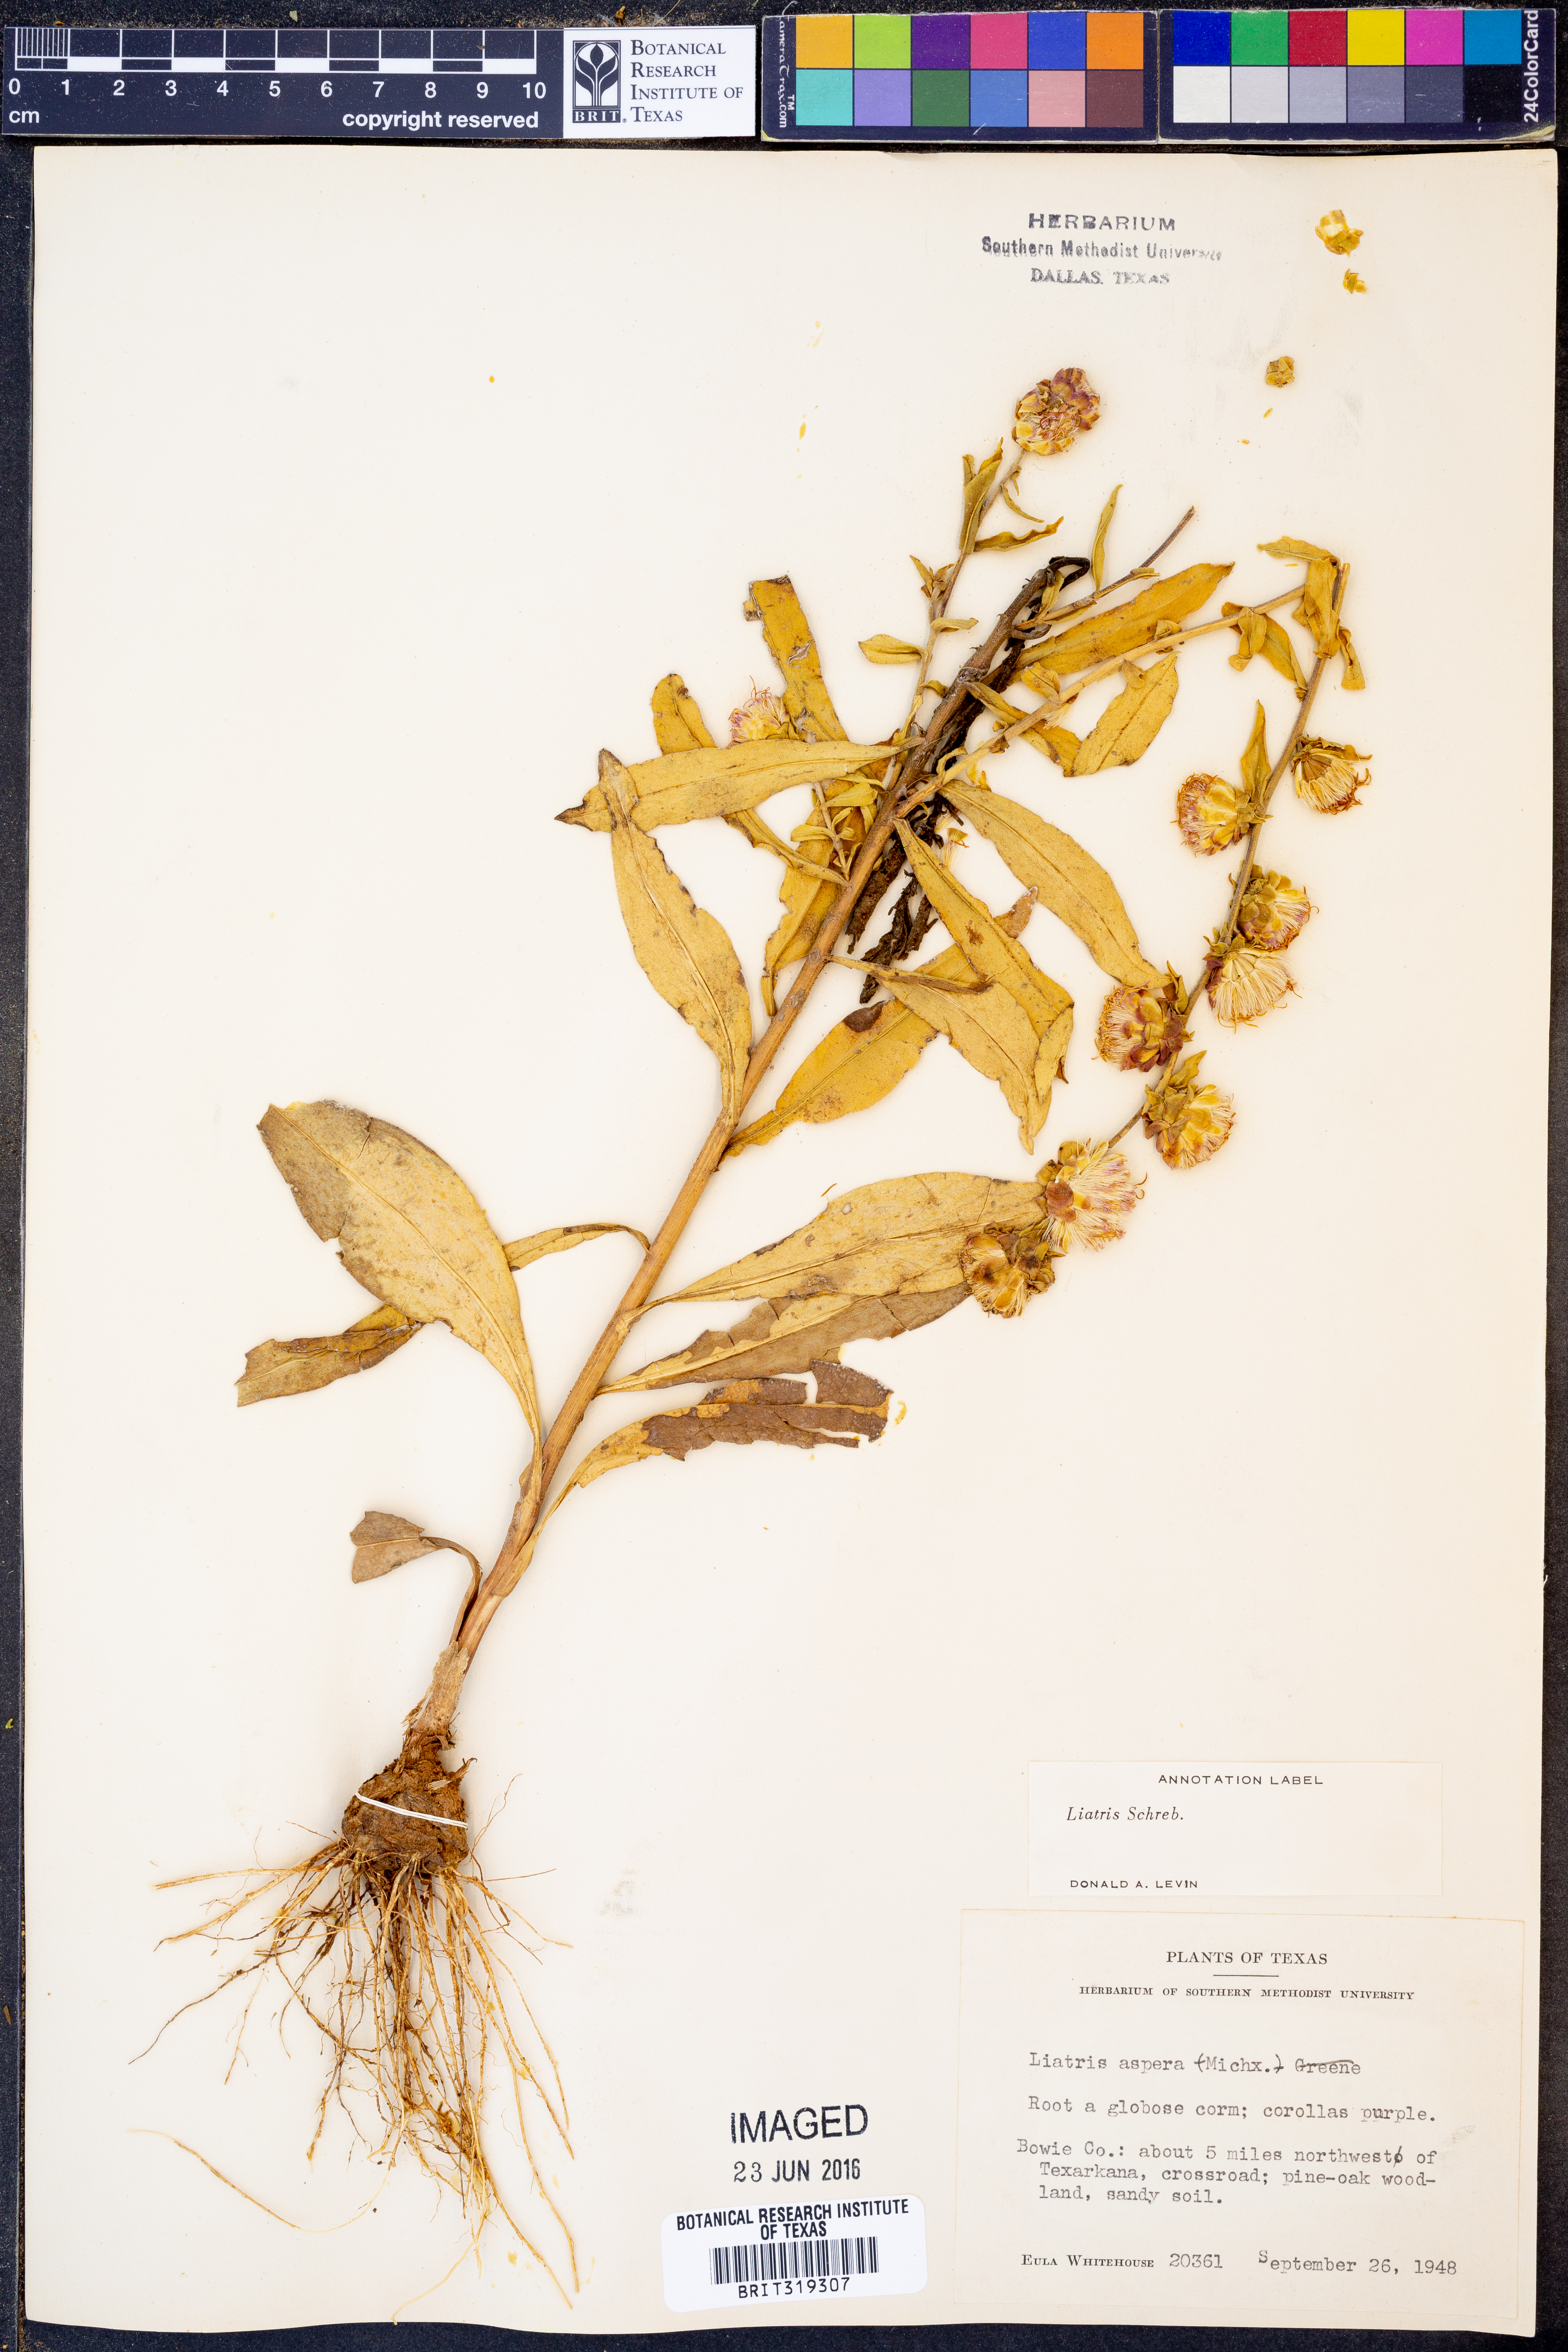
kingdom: Plantae
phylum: Tracheophyta
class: Magnoliopsida
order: Asterales
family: Asteraceae
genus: Liatris
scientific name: Liatris aspera
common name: Lacerate blazing-star
